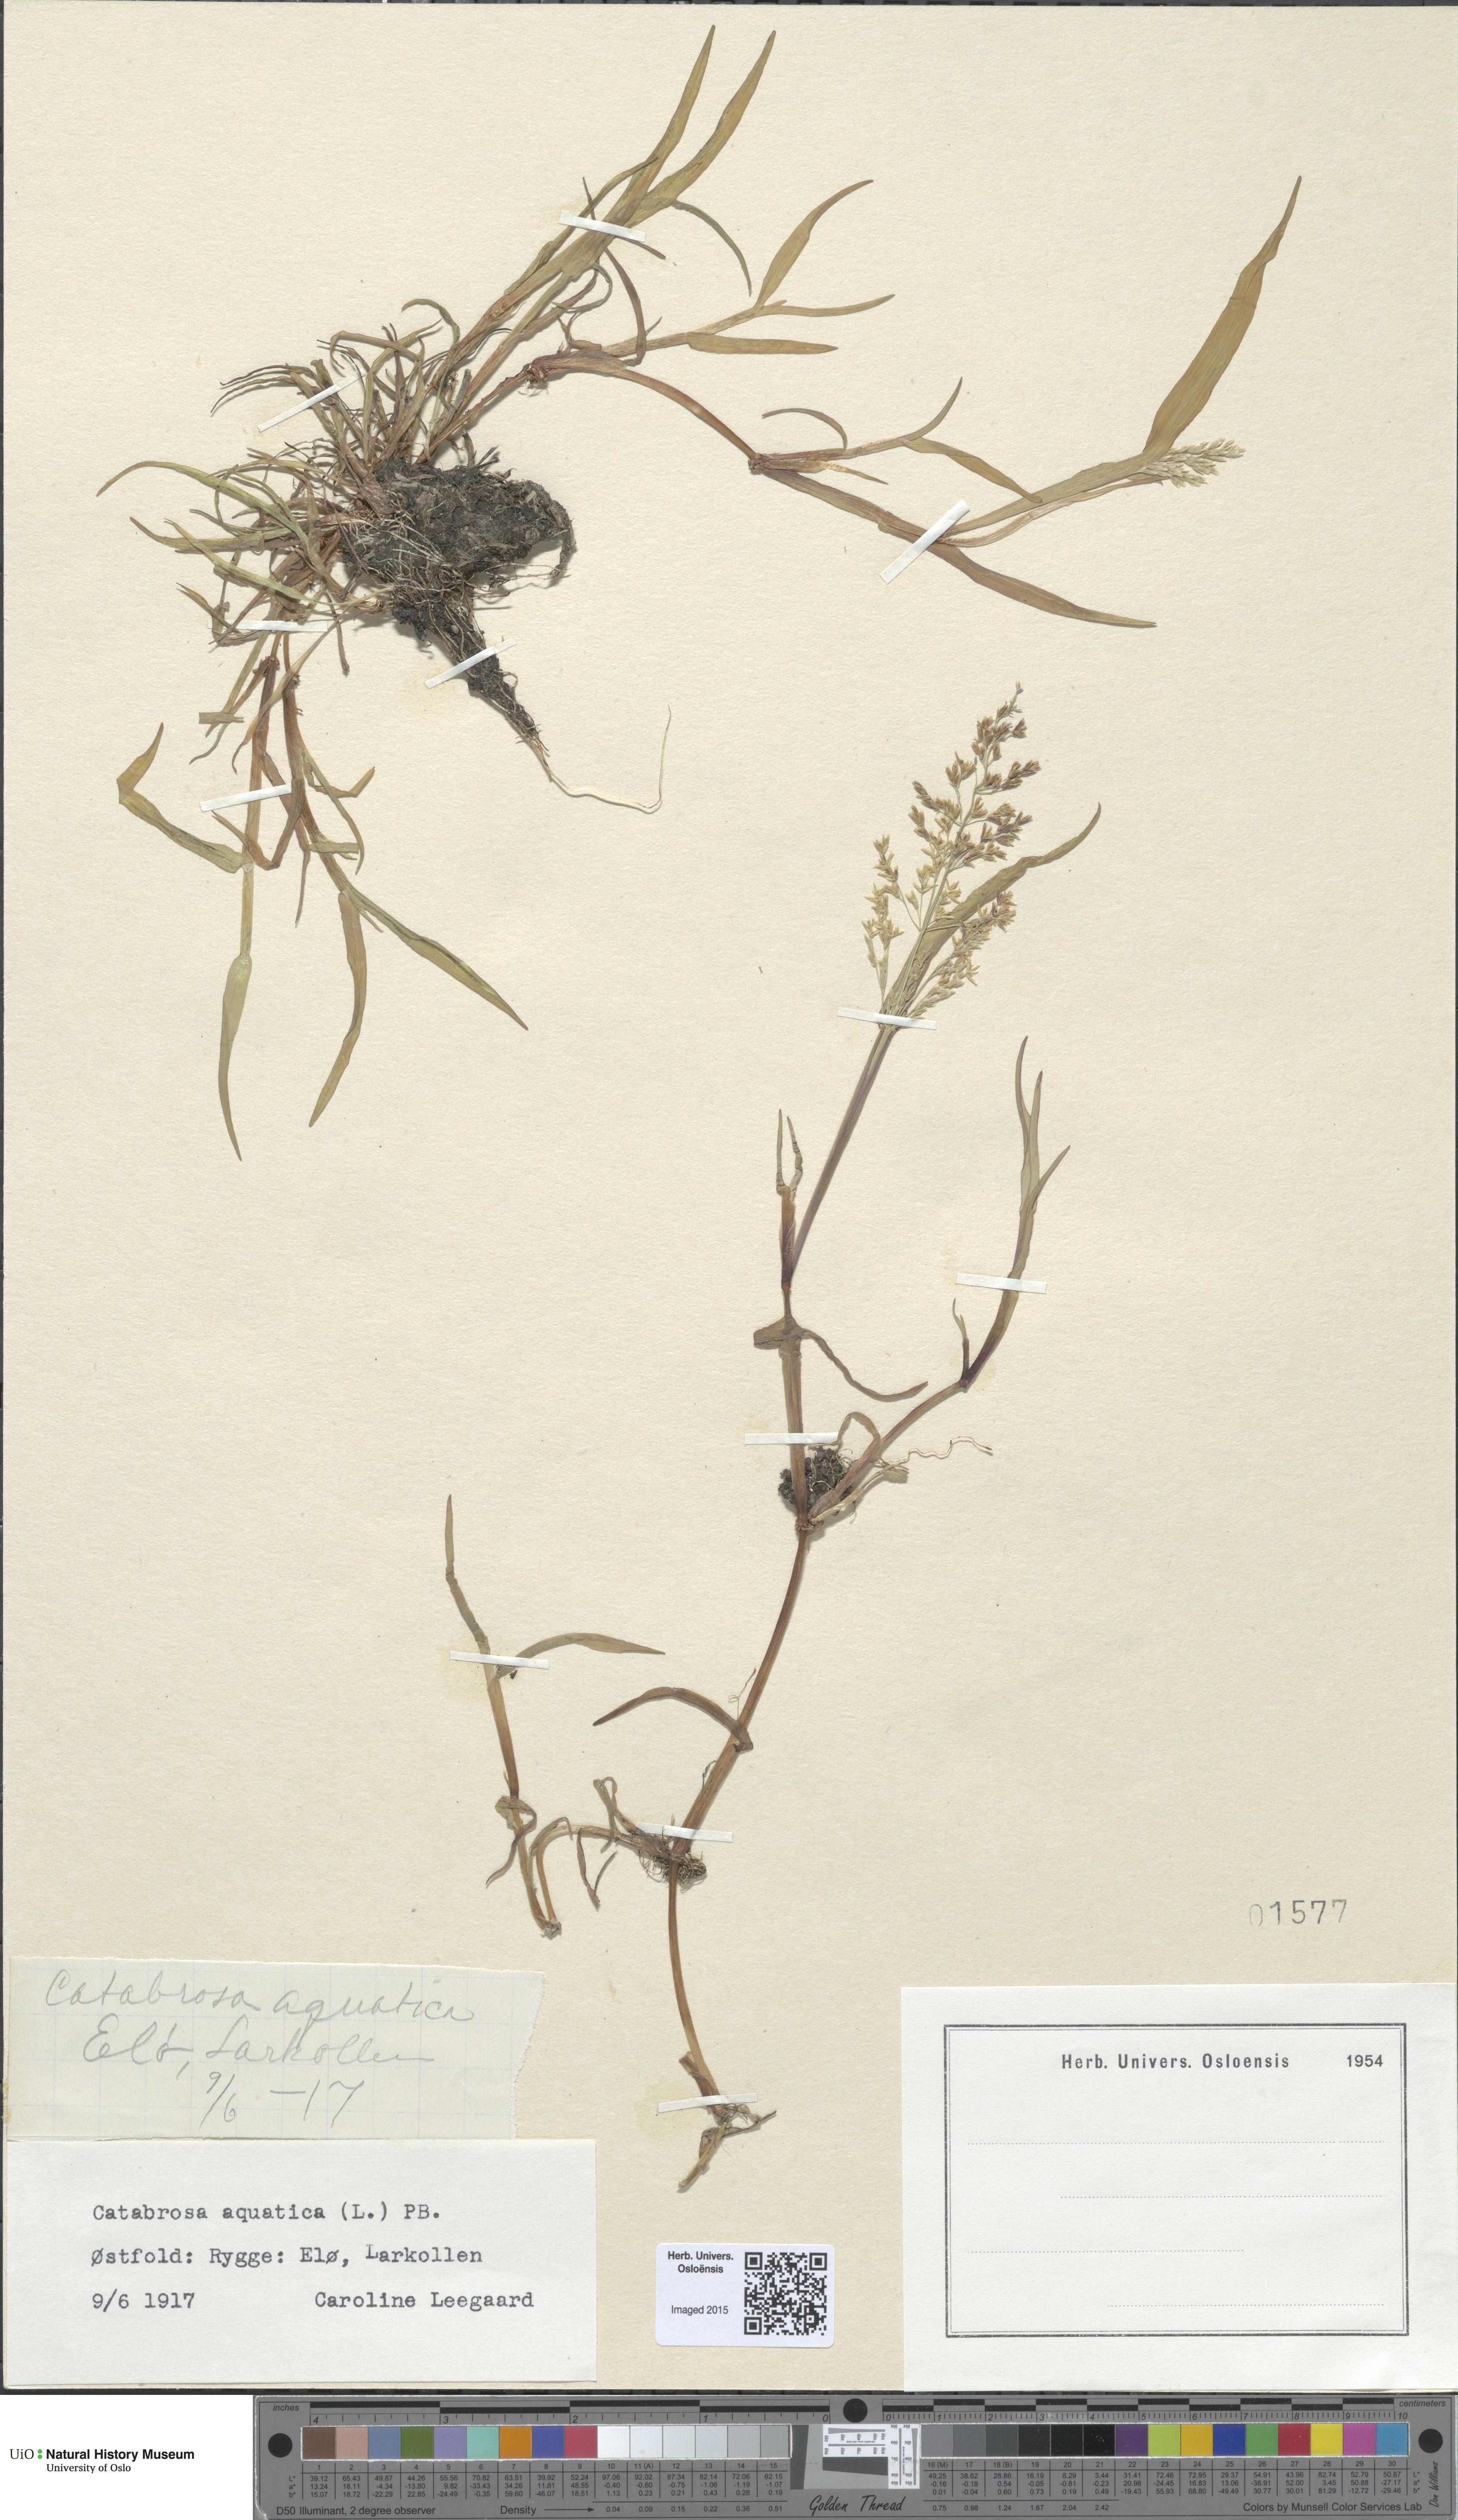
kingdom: Plantae
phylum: Tracheophyta
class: Liliopsida
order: Poales
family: Poaceae
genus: Catabrosa
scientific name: Catabrosa aquatica
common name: Whorl-grass
